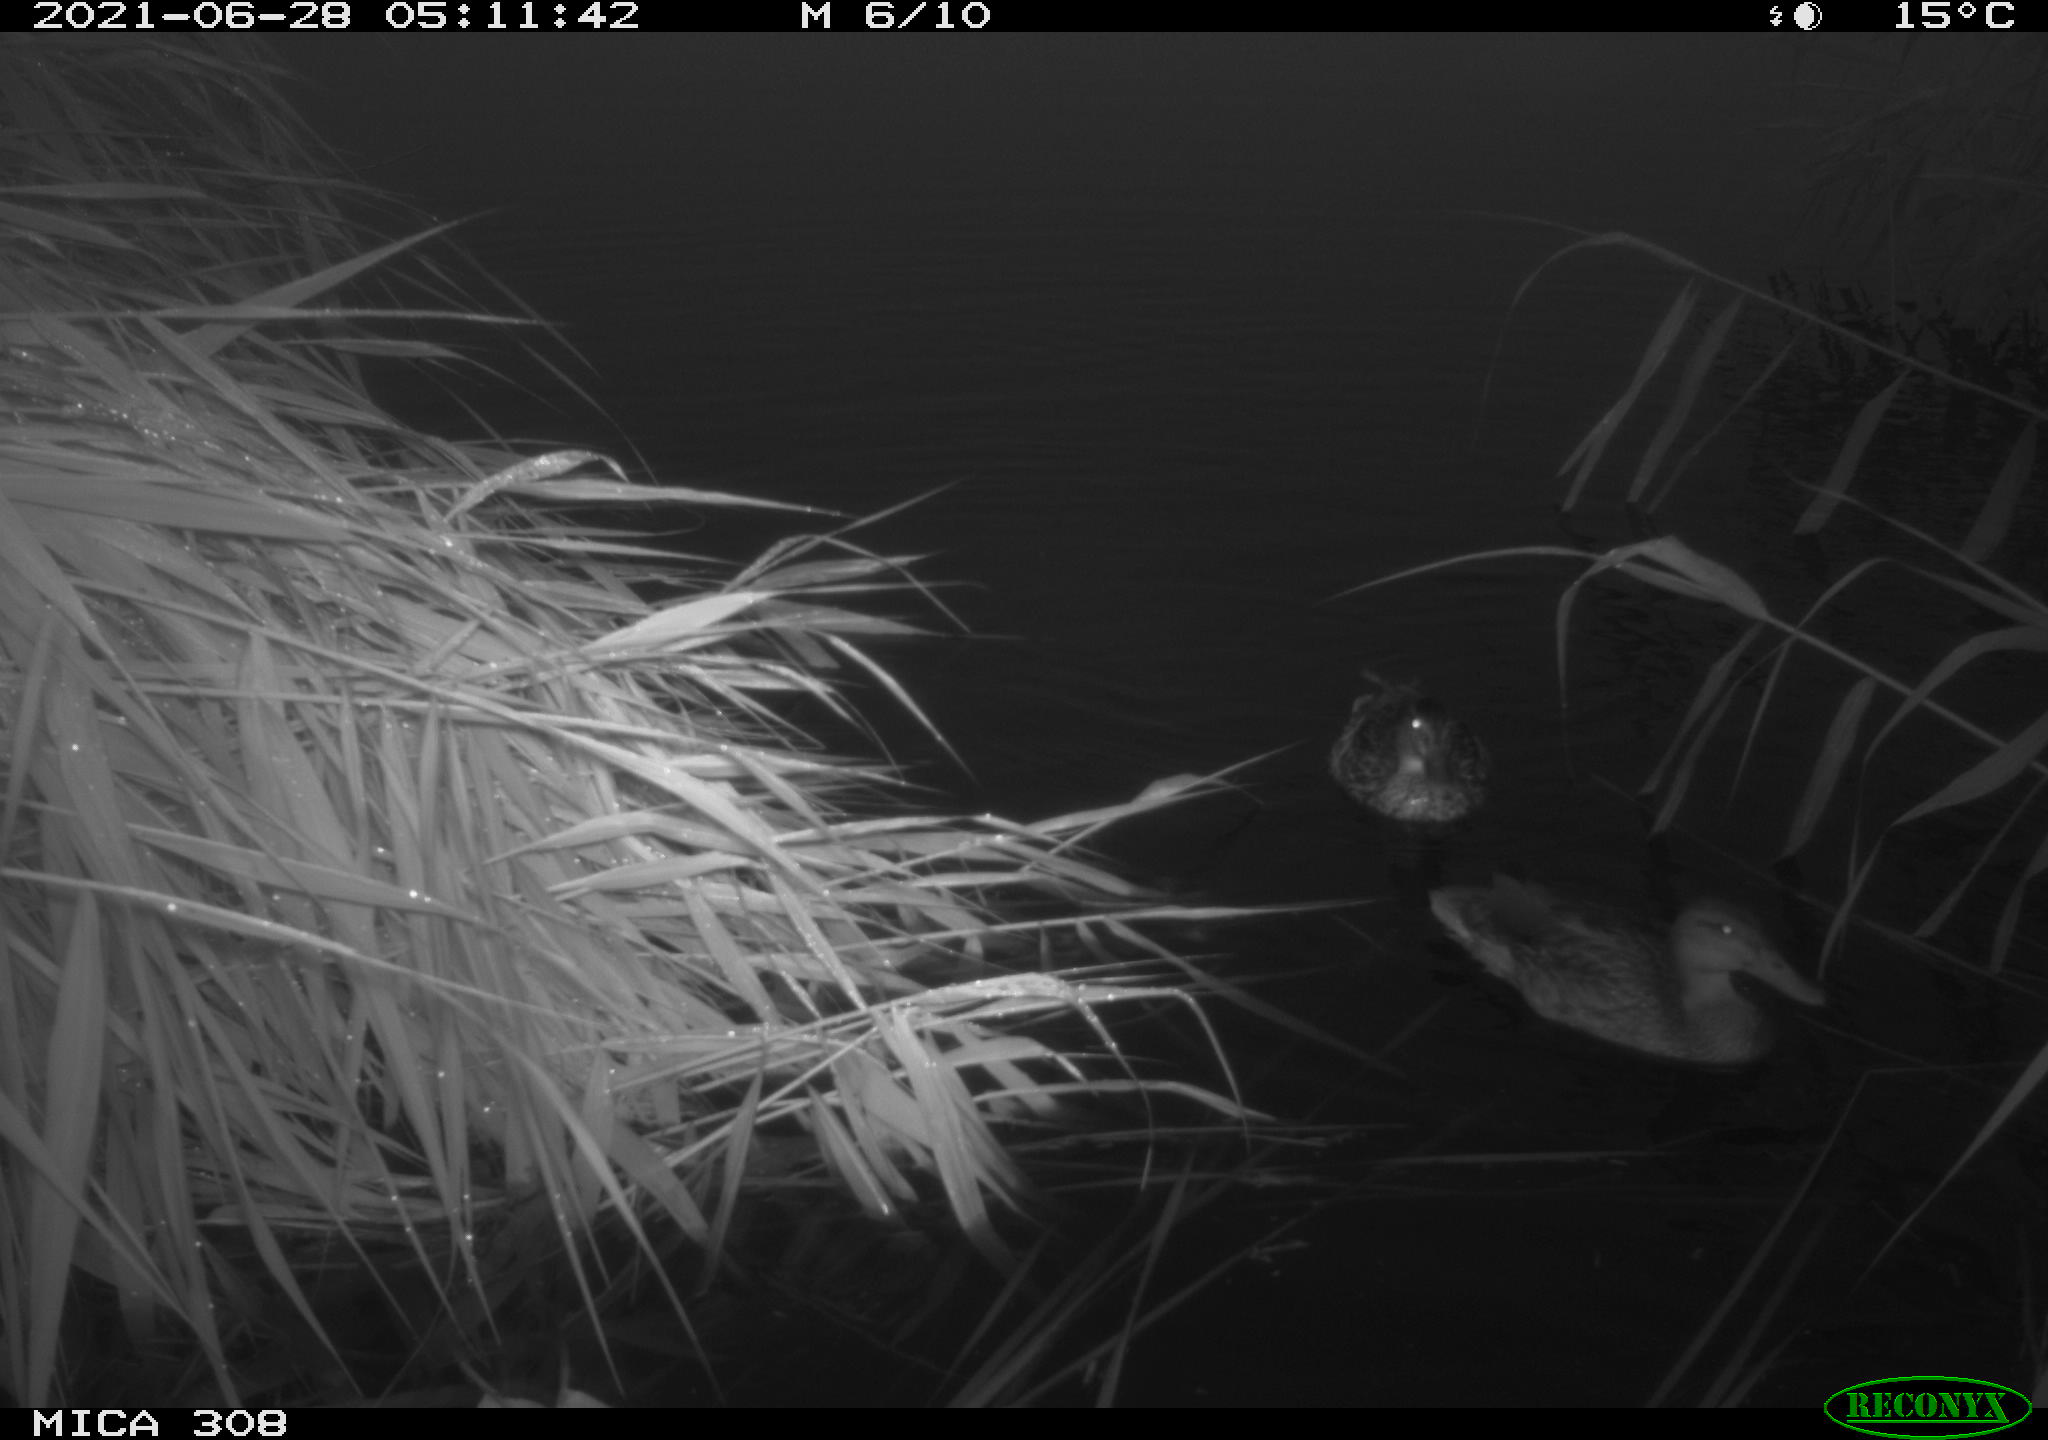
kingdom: Animalia
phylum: Chordata
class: Aves
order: Anseriformes
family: Anatidae
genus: Anas
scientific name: Anas platyrhynchos
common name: Mallard
